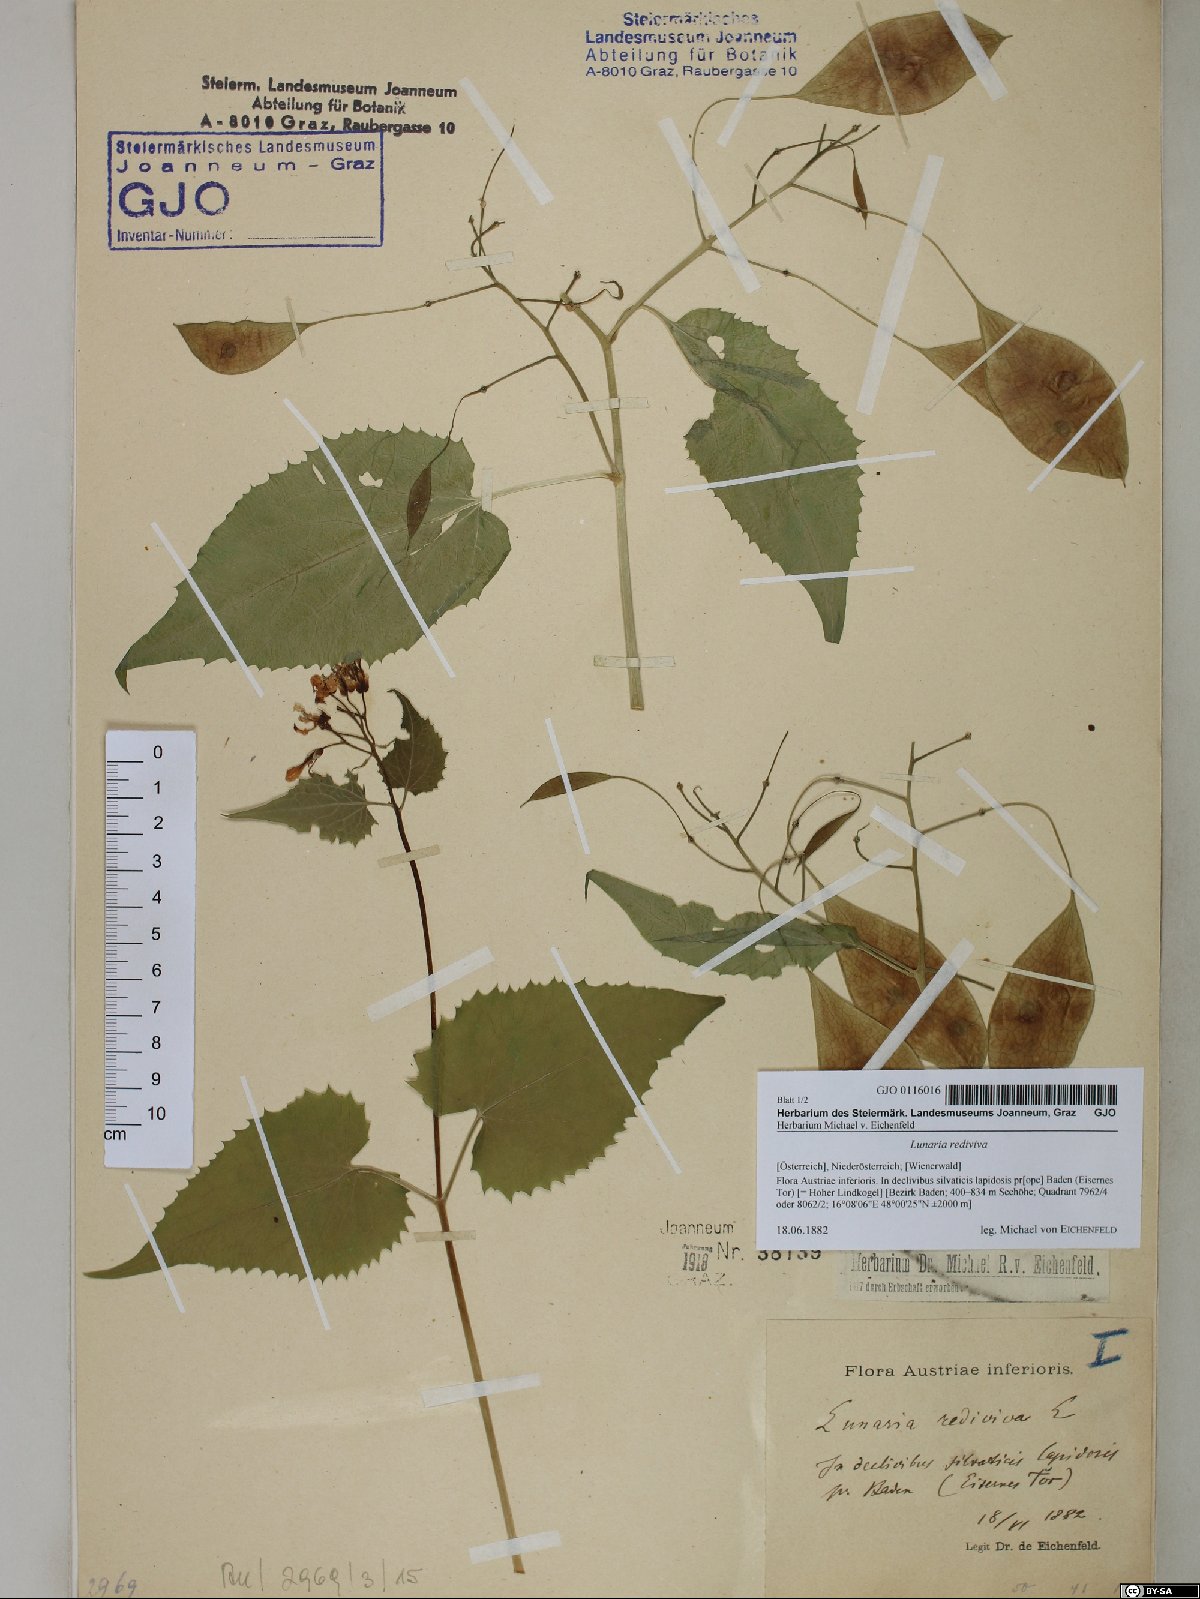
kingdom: Plantae
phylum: Tracheophyta
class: Magnoliopsida
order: Brassicales
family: Brassicaceae
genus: Lunaria
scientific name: Lunaria rediviva
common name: Perennial honesty
